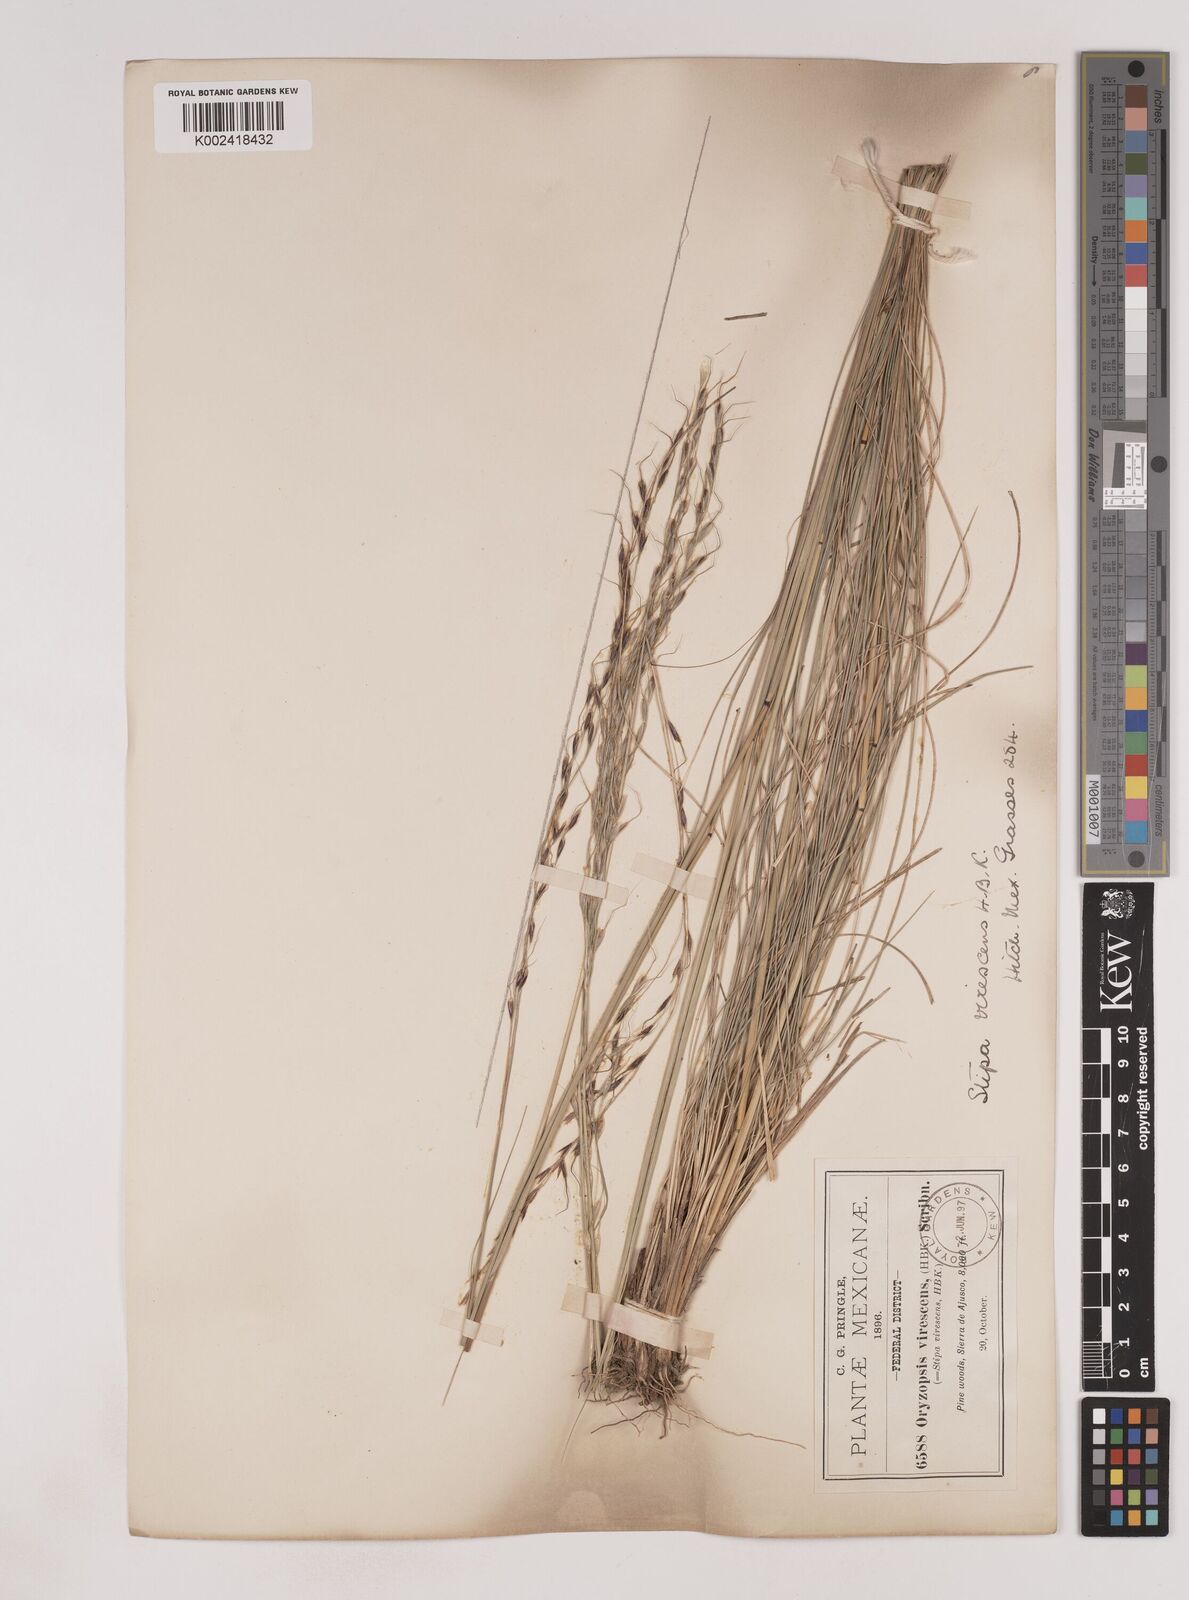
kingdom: Plantae
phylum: Tracheophyta
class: Liliopsida
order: Poales
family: Poaceae
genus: Piptochaetium
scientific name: Piptochaetium virescens
